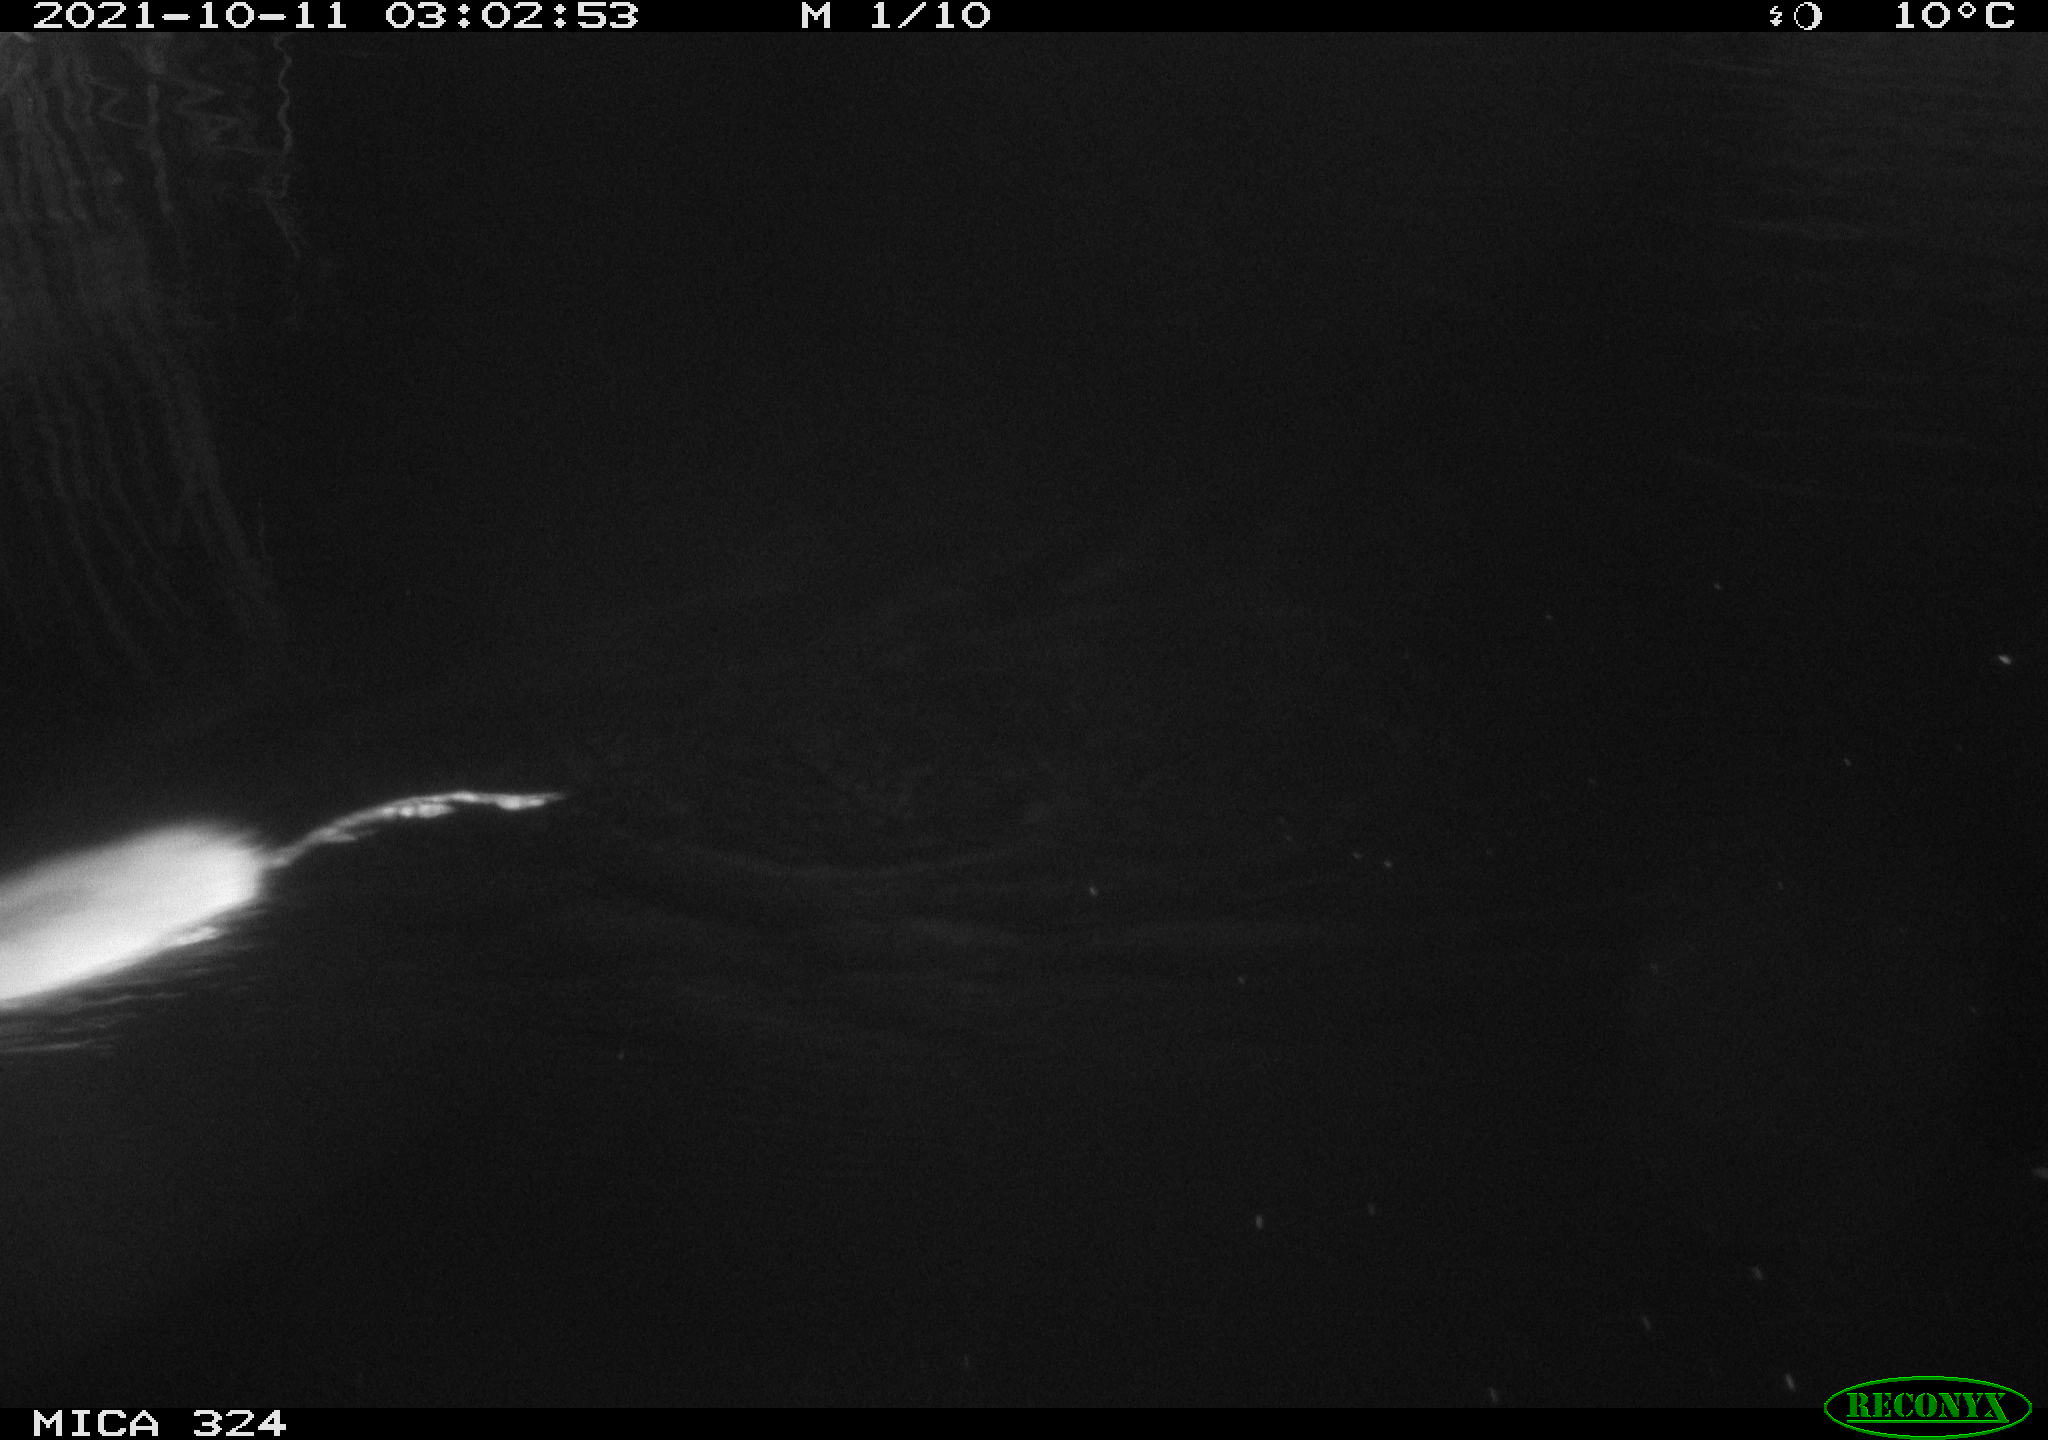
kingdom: Animalia
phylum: Chordata
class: Mammalia
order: Rodentia
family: Cricetidae
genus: Ondatra
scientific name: Ondatra zibethicus
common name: Muskrat
